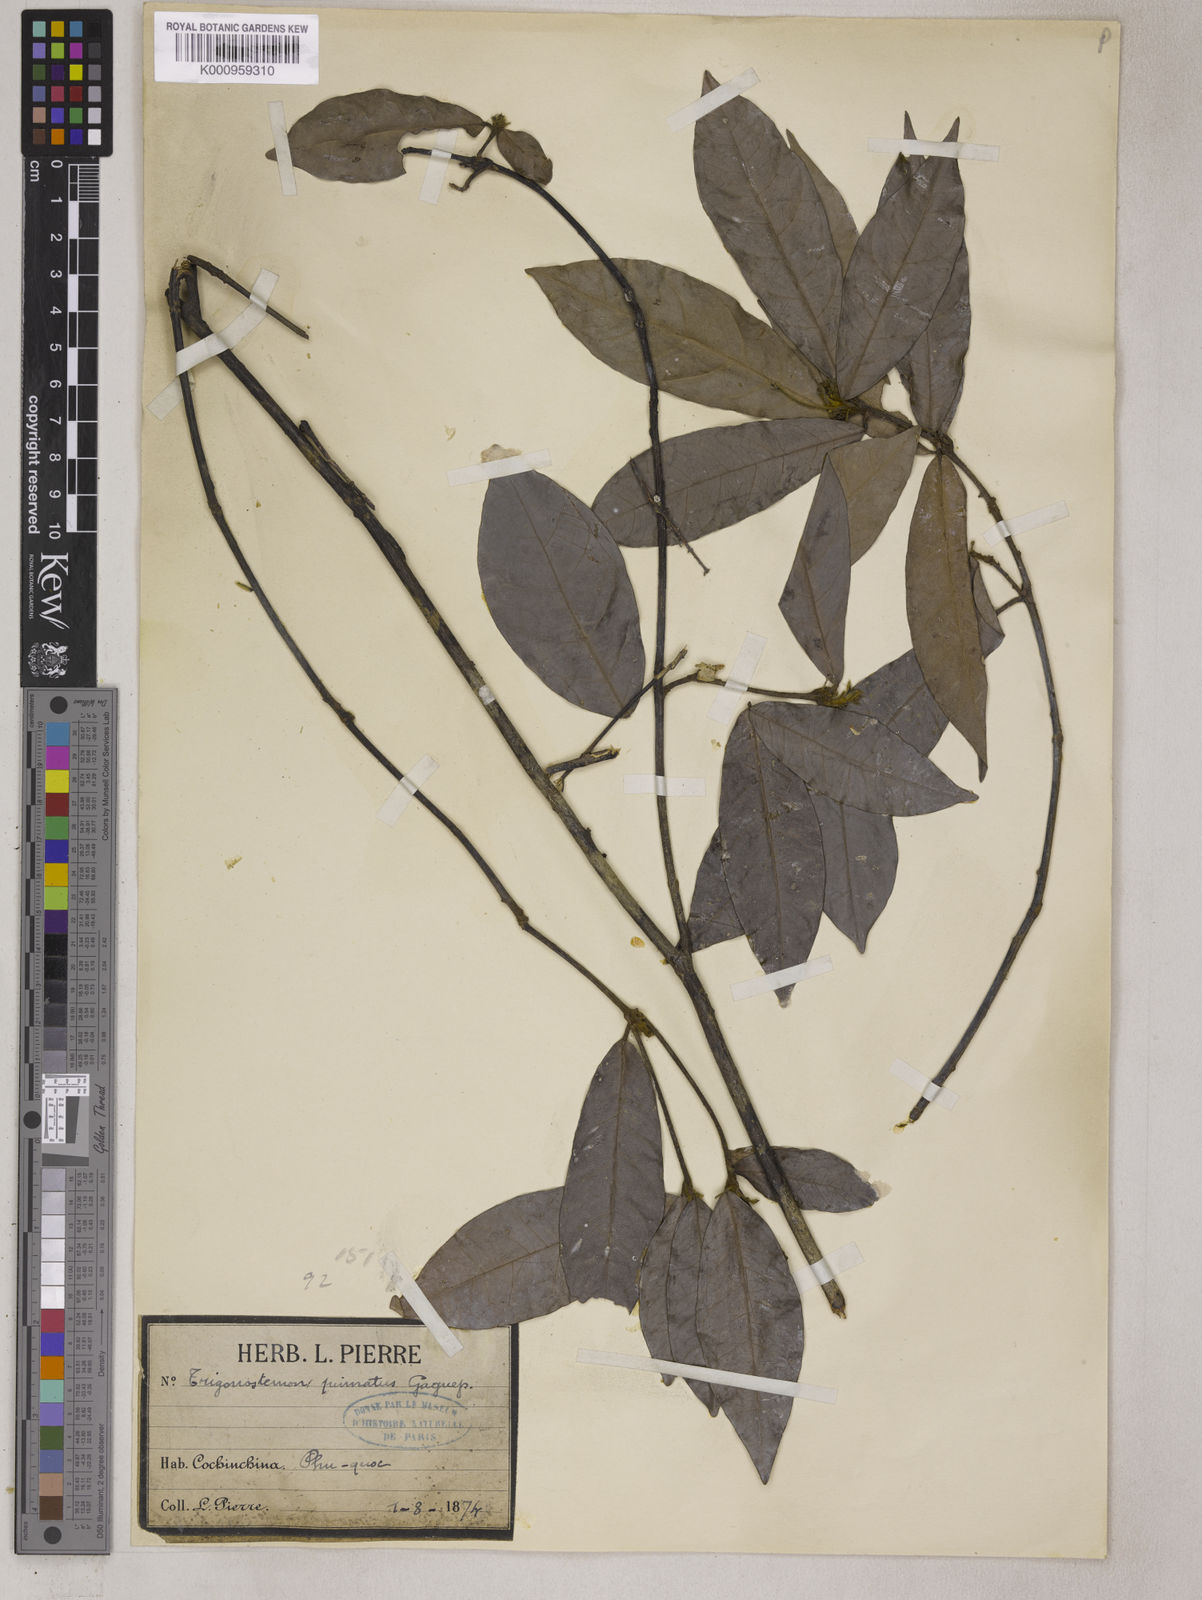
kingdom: Plantae
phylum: Tracheophyta
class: Magnoliopsida
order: Malpighiales
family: Euphorbiaceae
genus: Trigonostemon
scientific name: Trigonostemon murtonii
